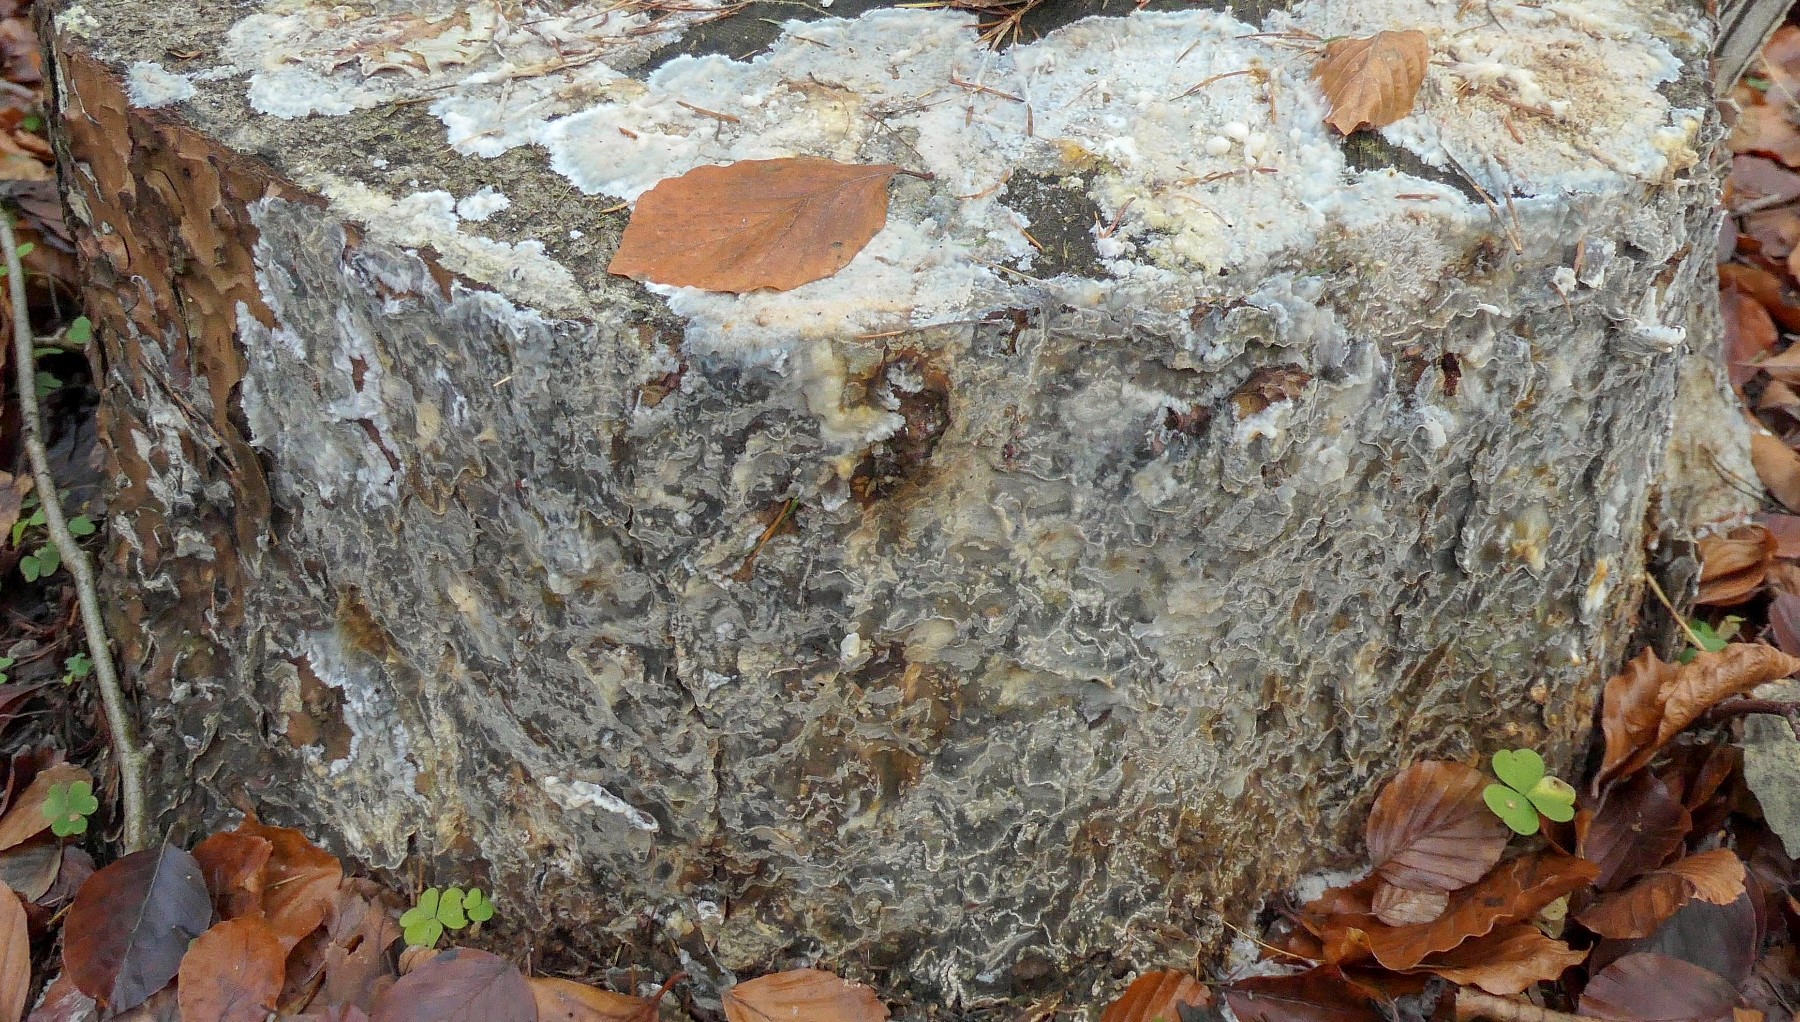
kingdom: Fungi
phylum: Basidiomycota
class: Agaricomycetes
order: Polyporales
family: Phanerochaetaceae
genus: Phlebiopsis
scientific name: Phlebiopsis gigantea
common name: kæmpebarksvamp
